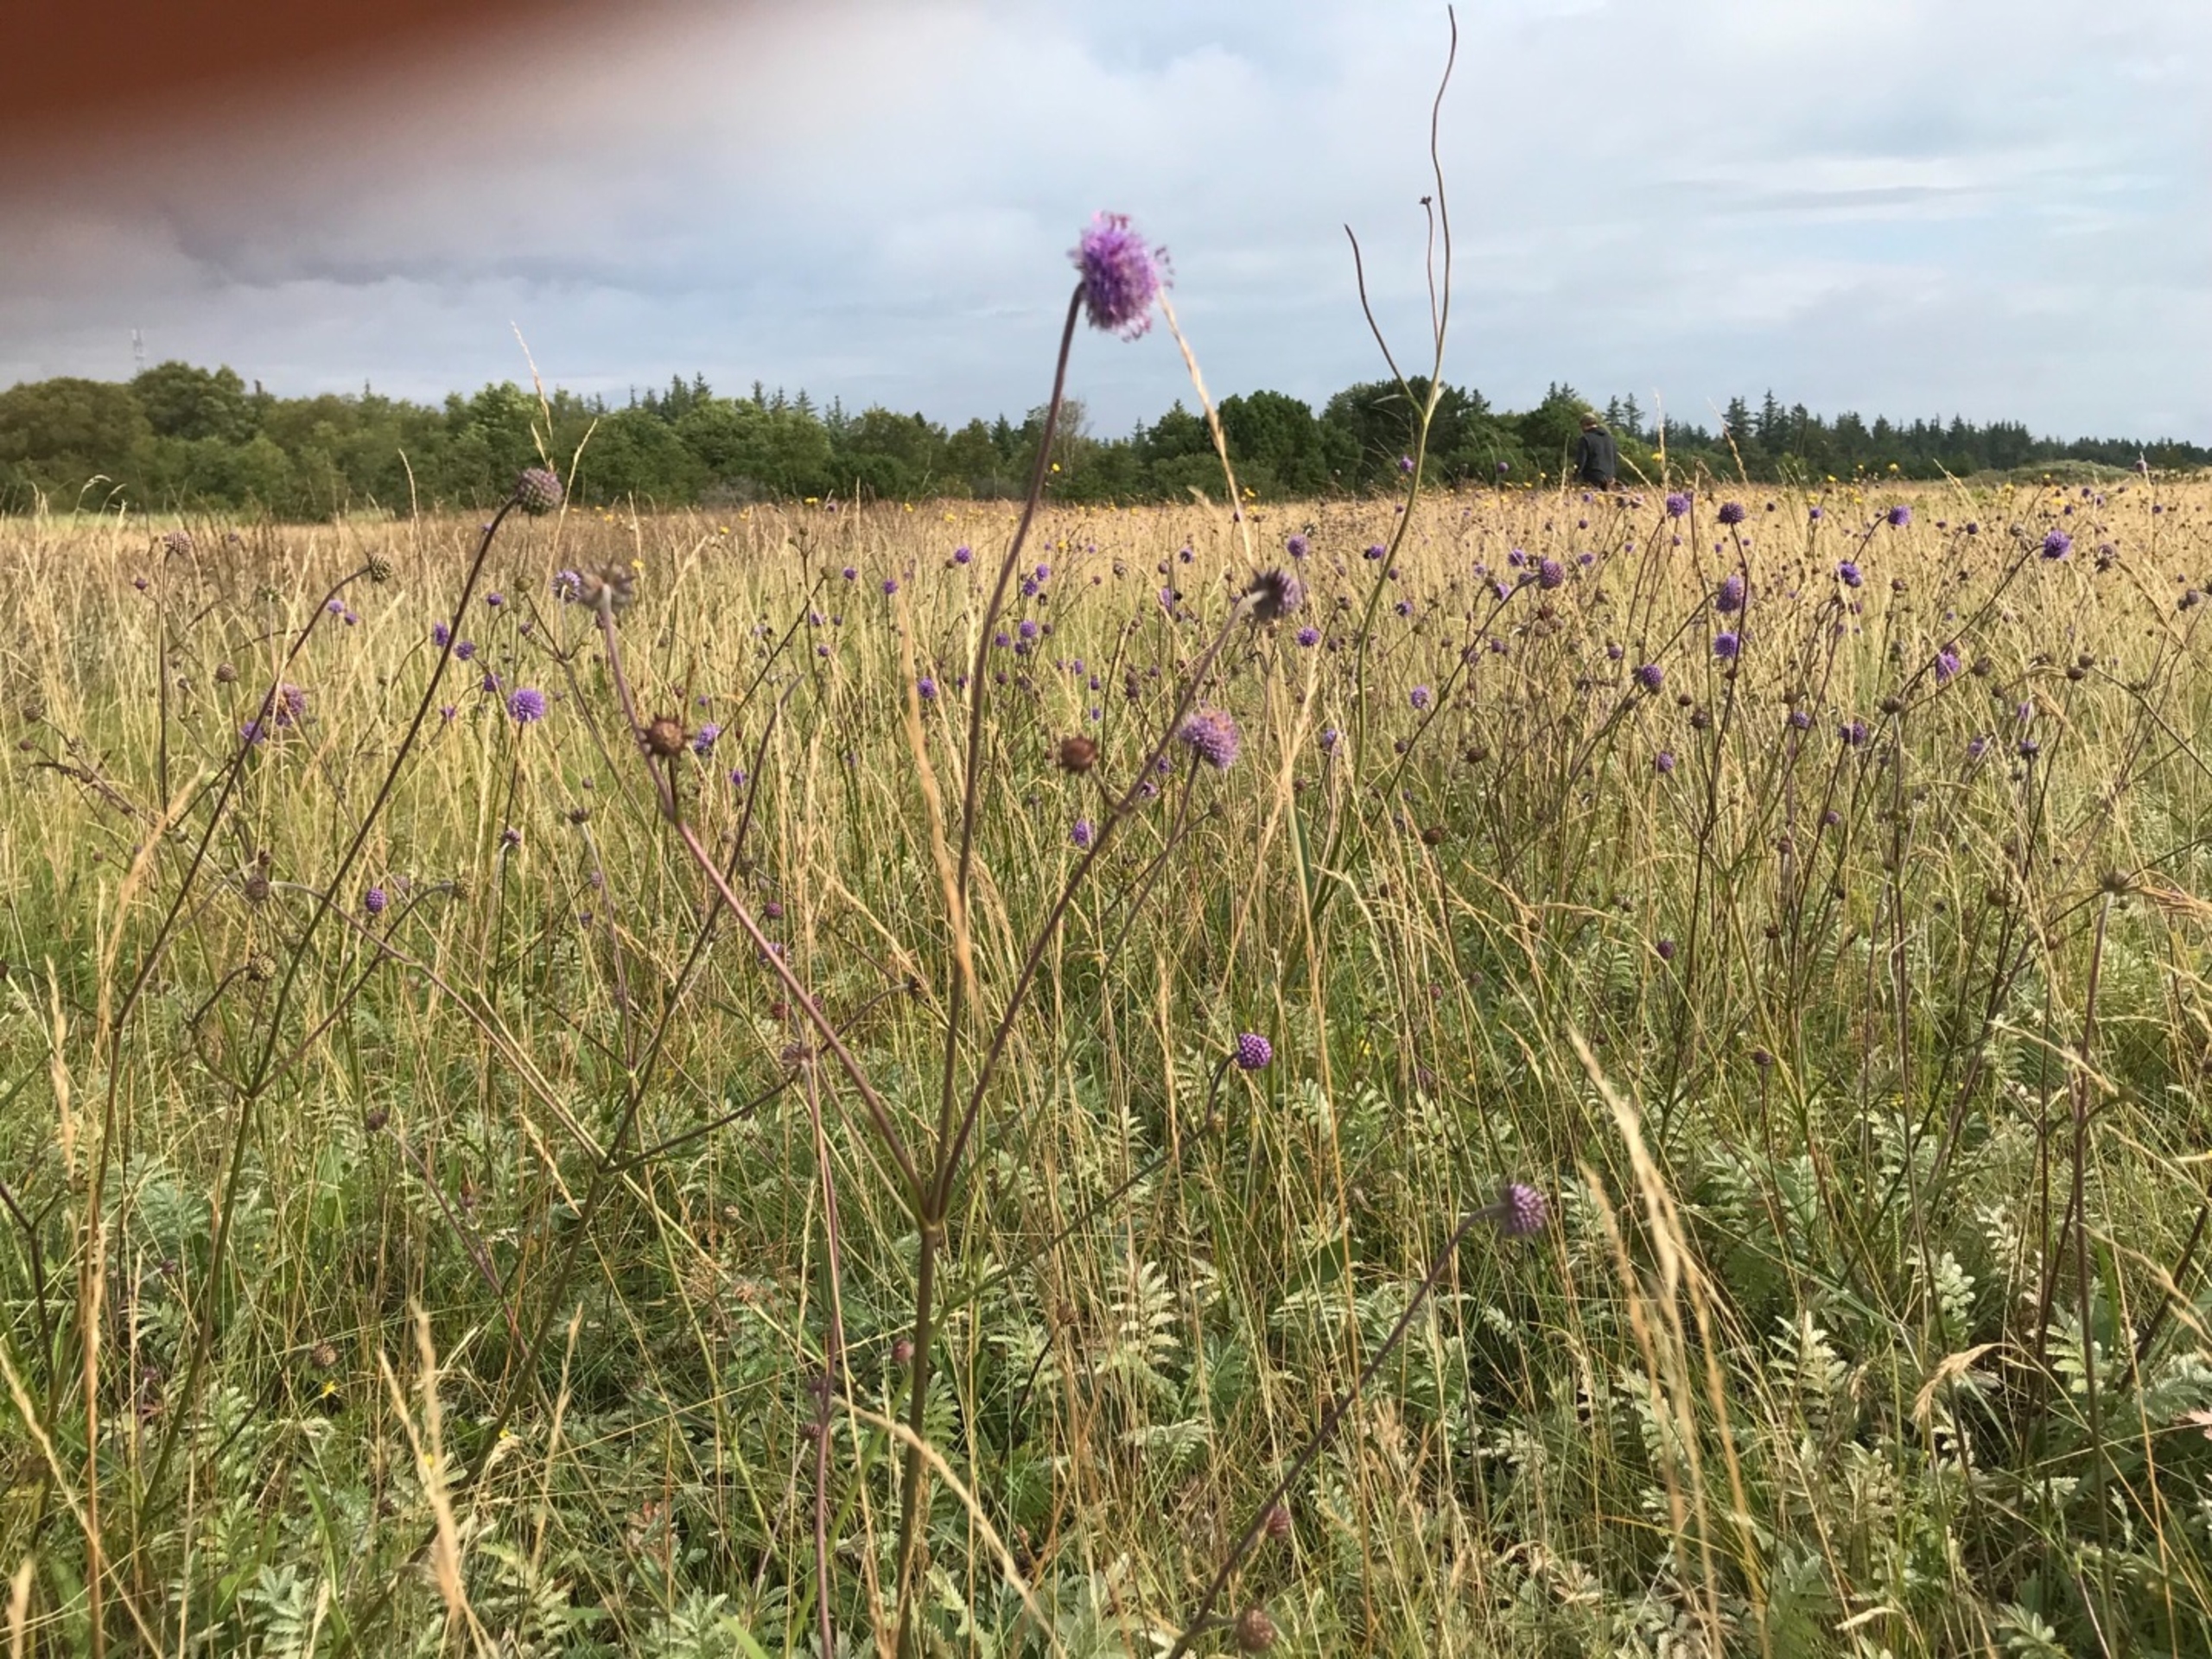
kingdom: Plantae
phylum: Tracheophyta
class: Magnoliopsida
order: Dipsacales
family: Caprifoliaceae
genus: Succisa
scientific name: Succisa pratensis
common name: Djævelsbid
